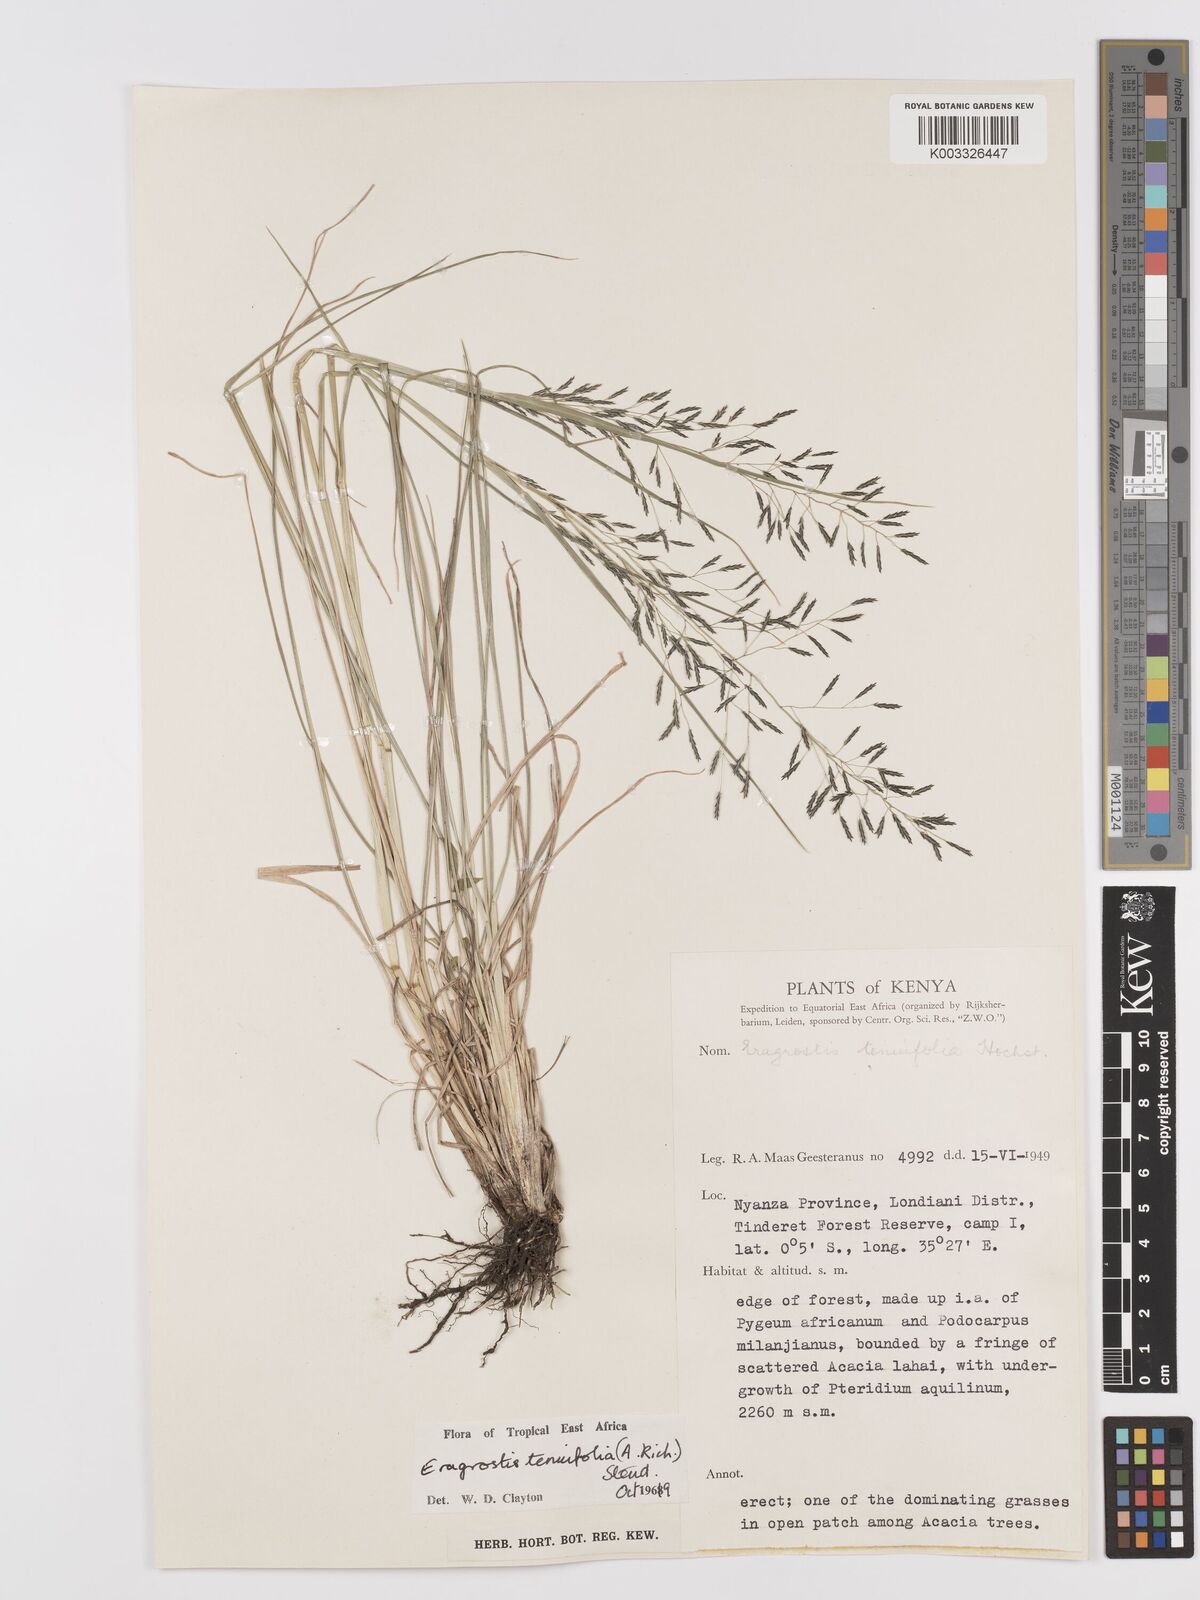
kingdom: Plantae
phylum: Tracheophyta
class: Liliopsida
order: Poales
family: Poaceae
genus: Eragrostis
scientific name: Eragrostis tenuifolia
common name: Elastic grass
